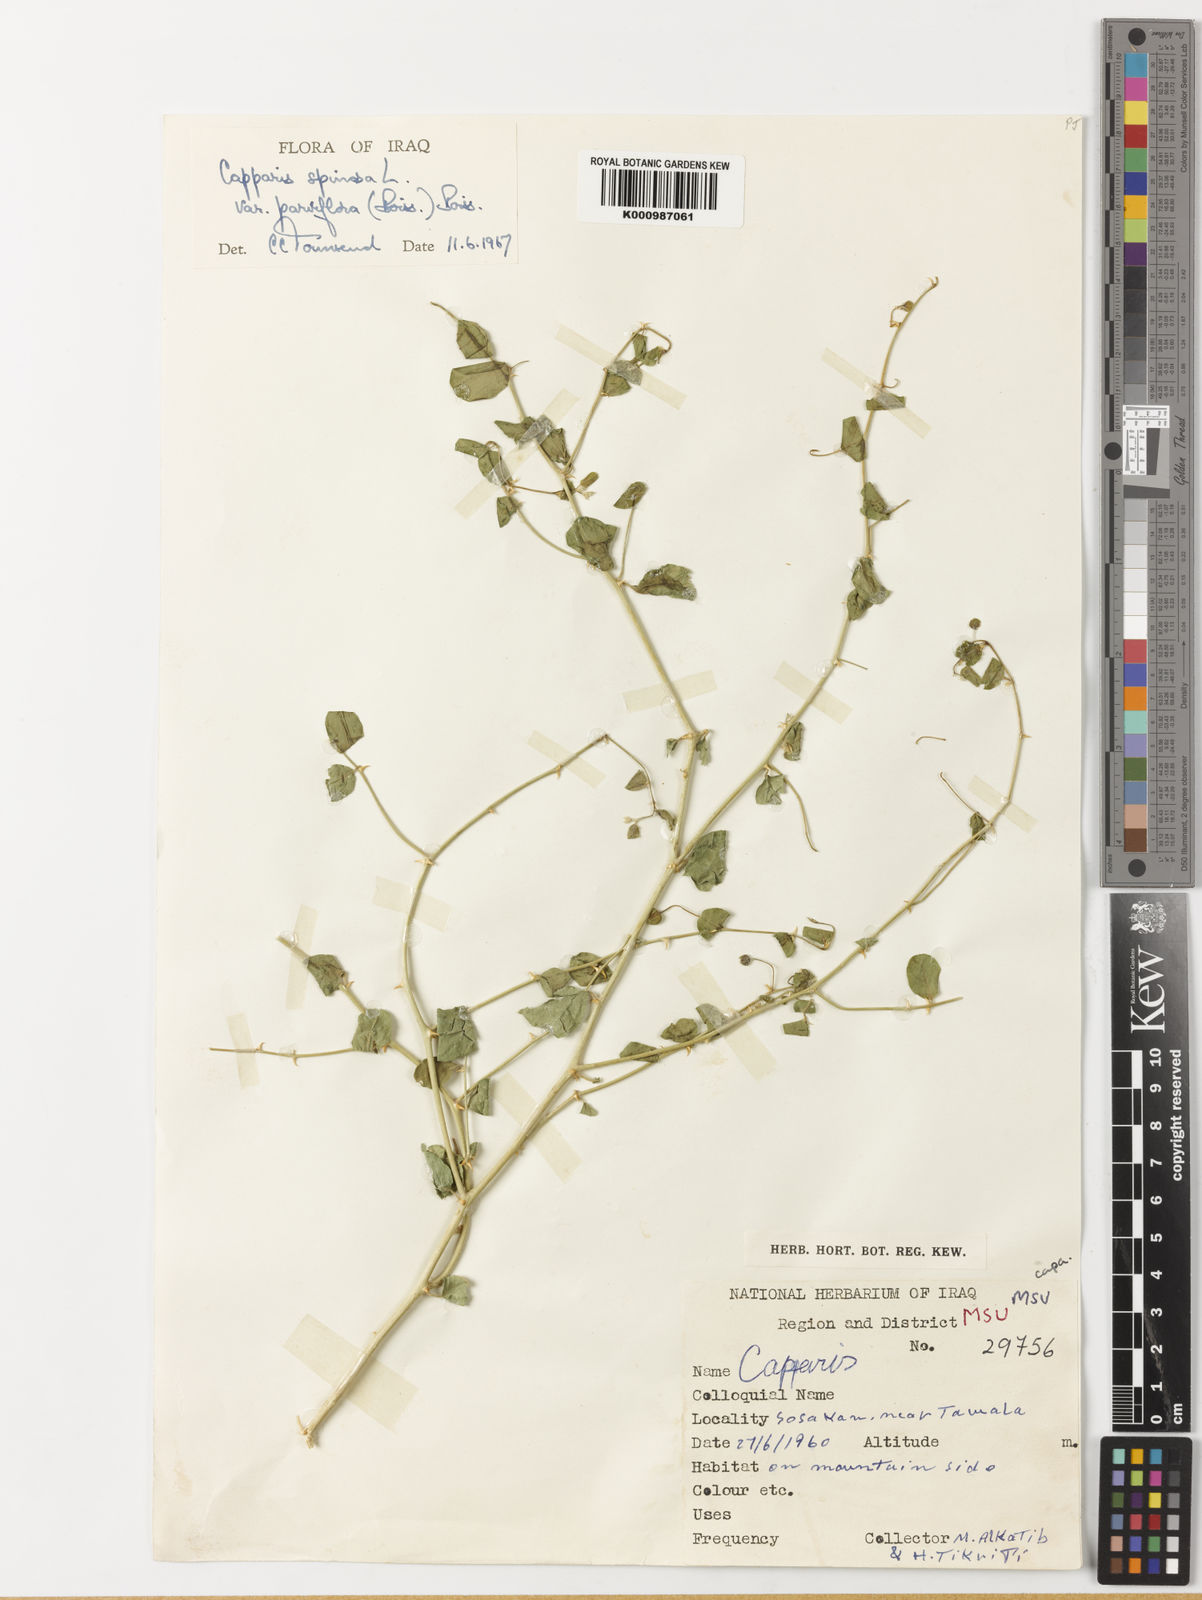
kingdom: Plantae
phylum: Tracheophyta
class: Magnoliopsida
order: Brassicales
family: Capparaceae
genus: Capparis
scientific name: Capparis spinosa
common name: Caper
